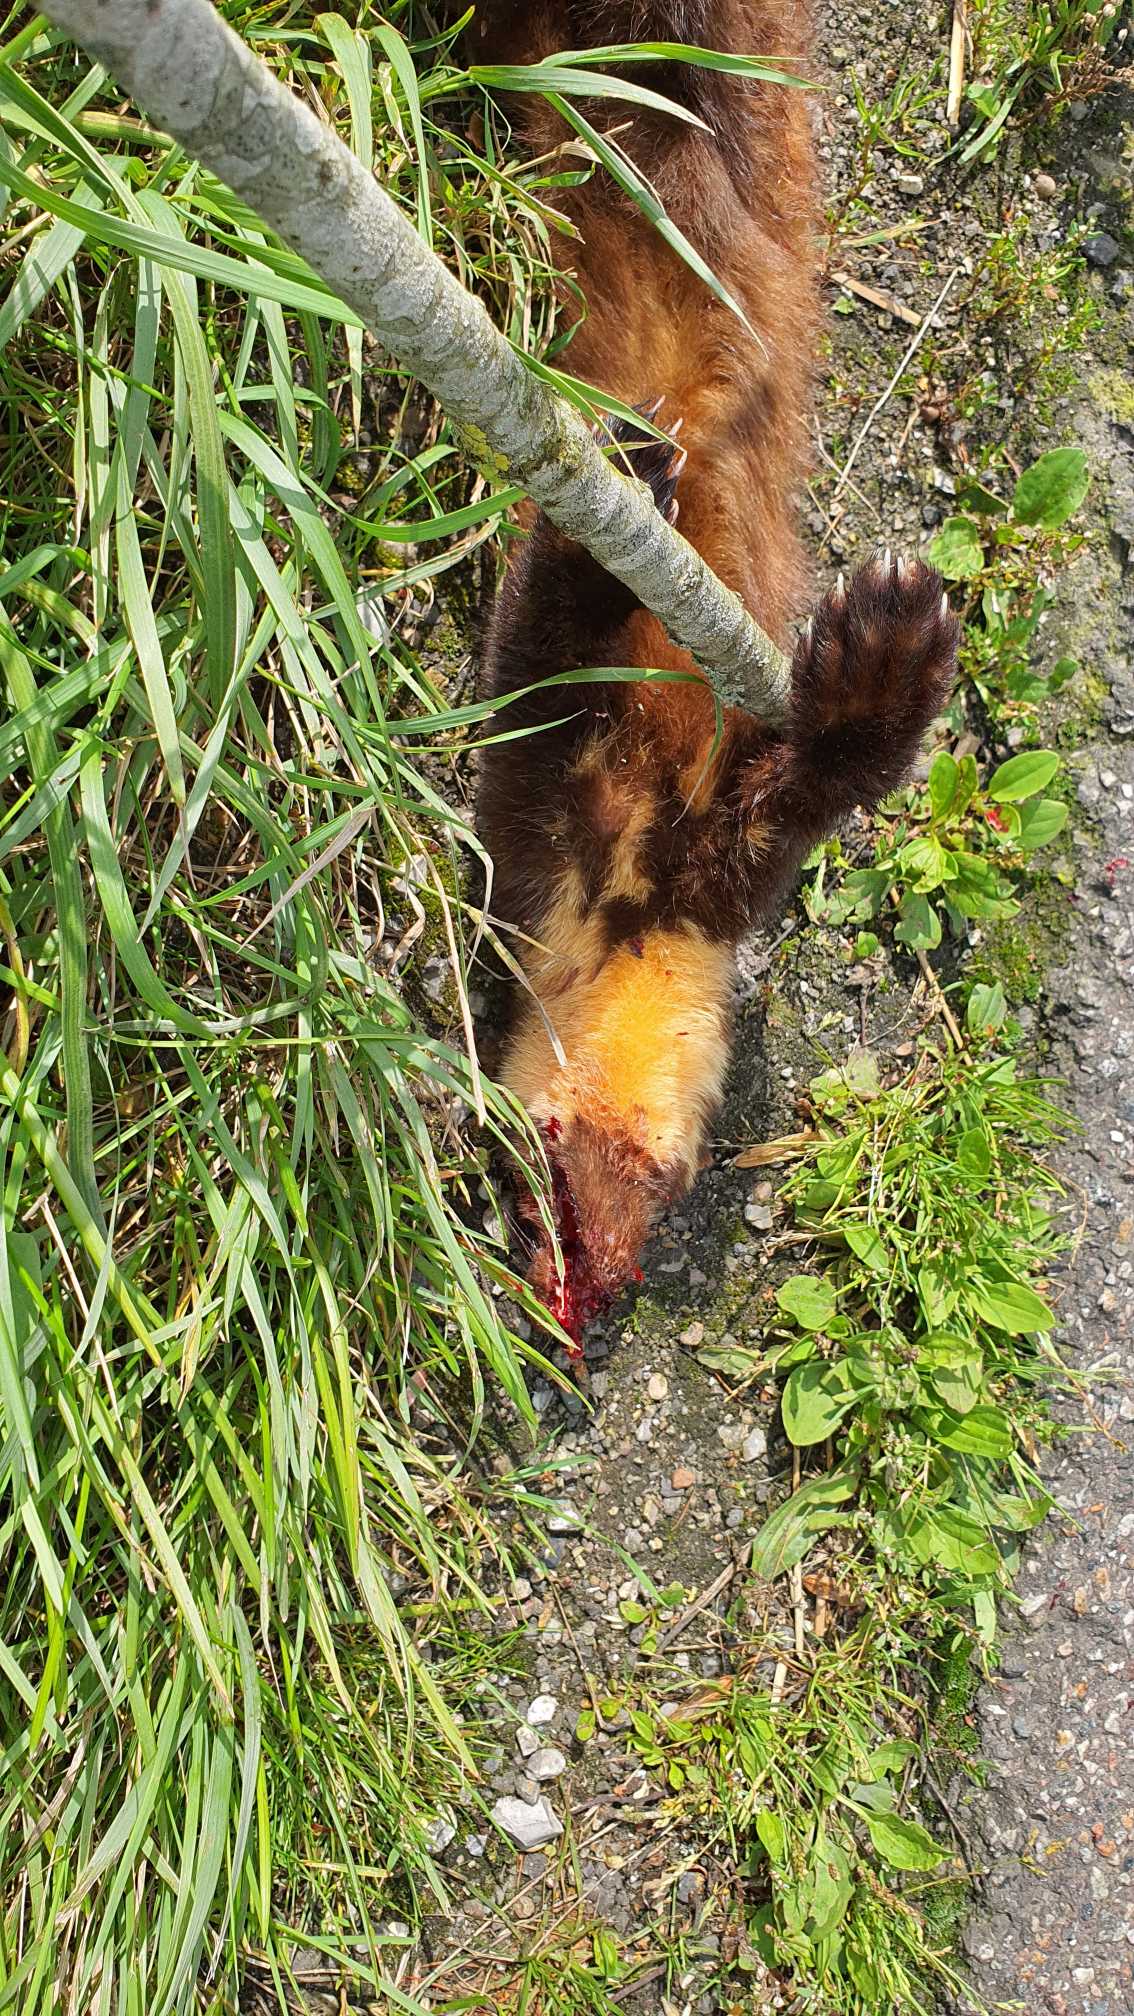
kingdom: Animalia
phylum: Chordata
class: Mammalia
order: Carnivora
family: Mustelidae
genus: Martes
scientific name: Martes martes
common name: Skovmår
